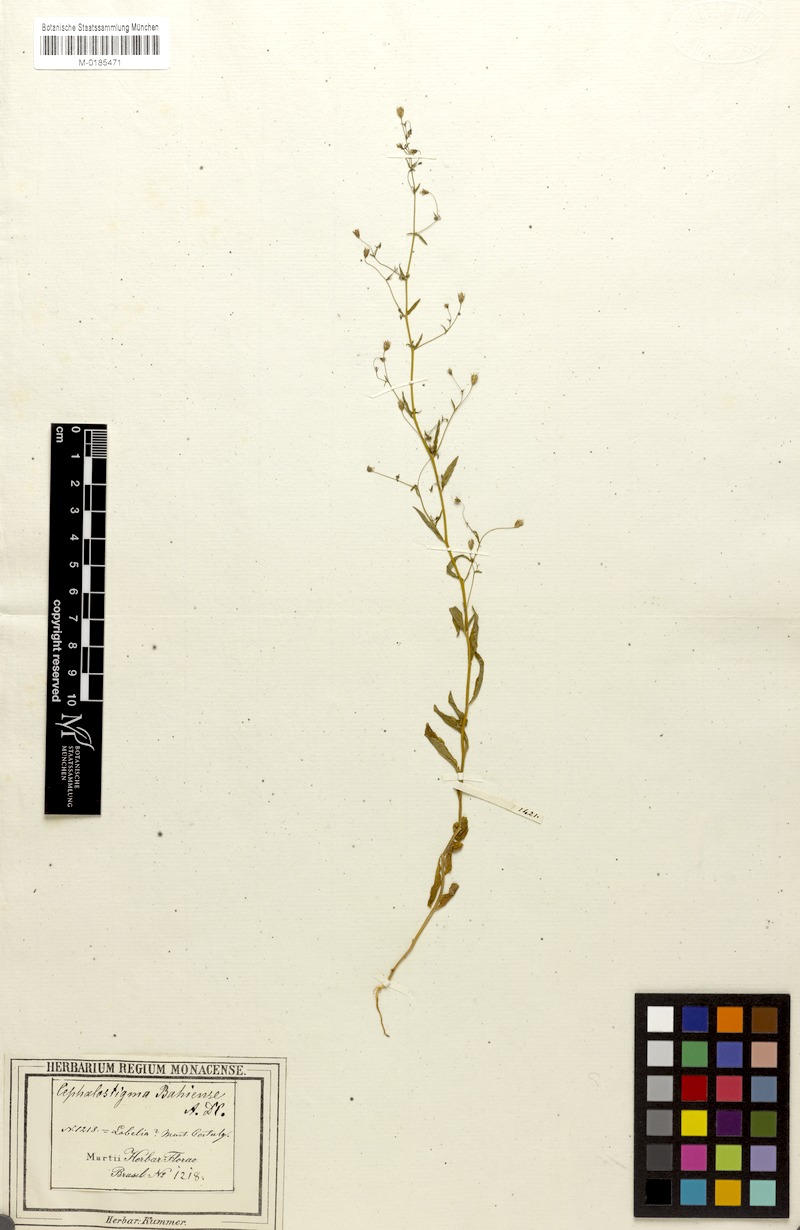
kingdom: Plantae
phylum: Tracheophyta
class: Magnoliopsida
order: Asterales
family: Campanulaceae
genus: Wahlenbergia
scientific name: Wahlenbergia perrottetii
